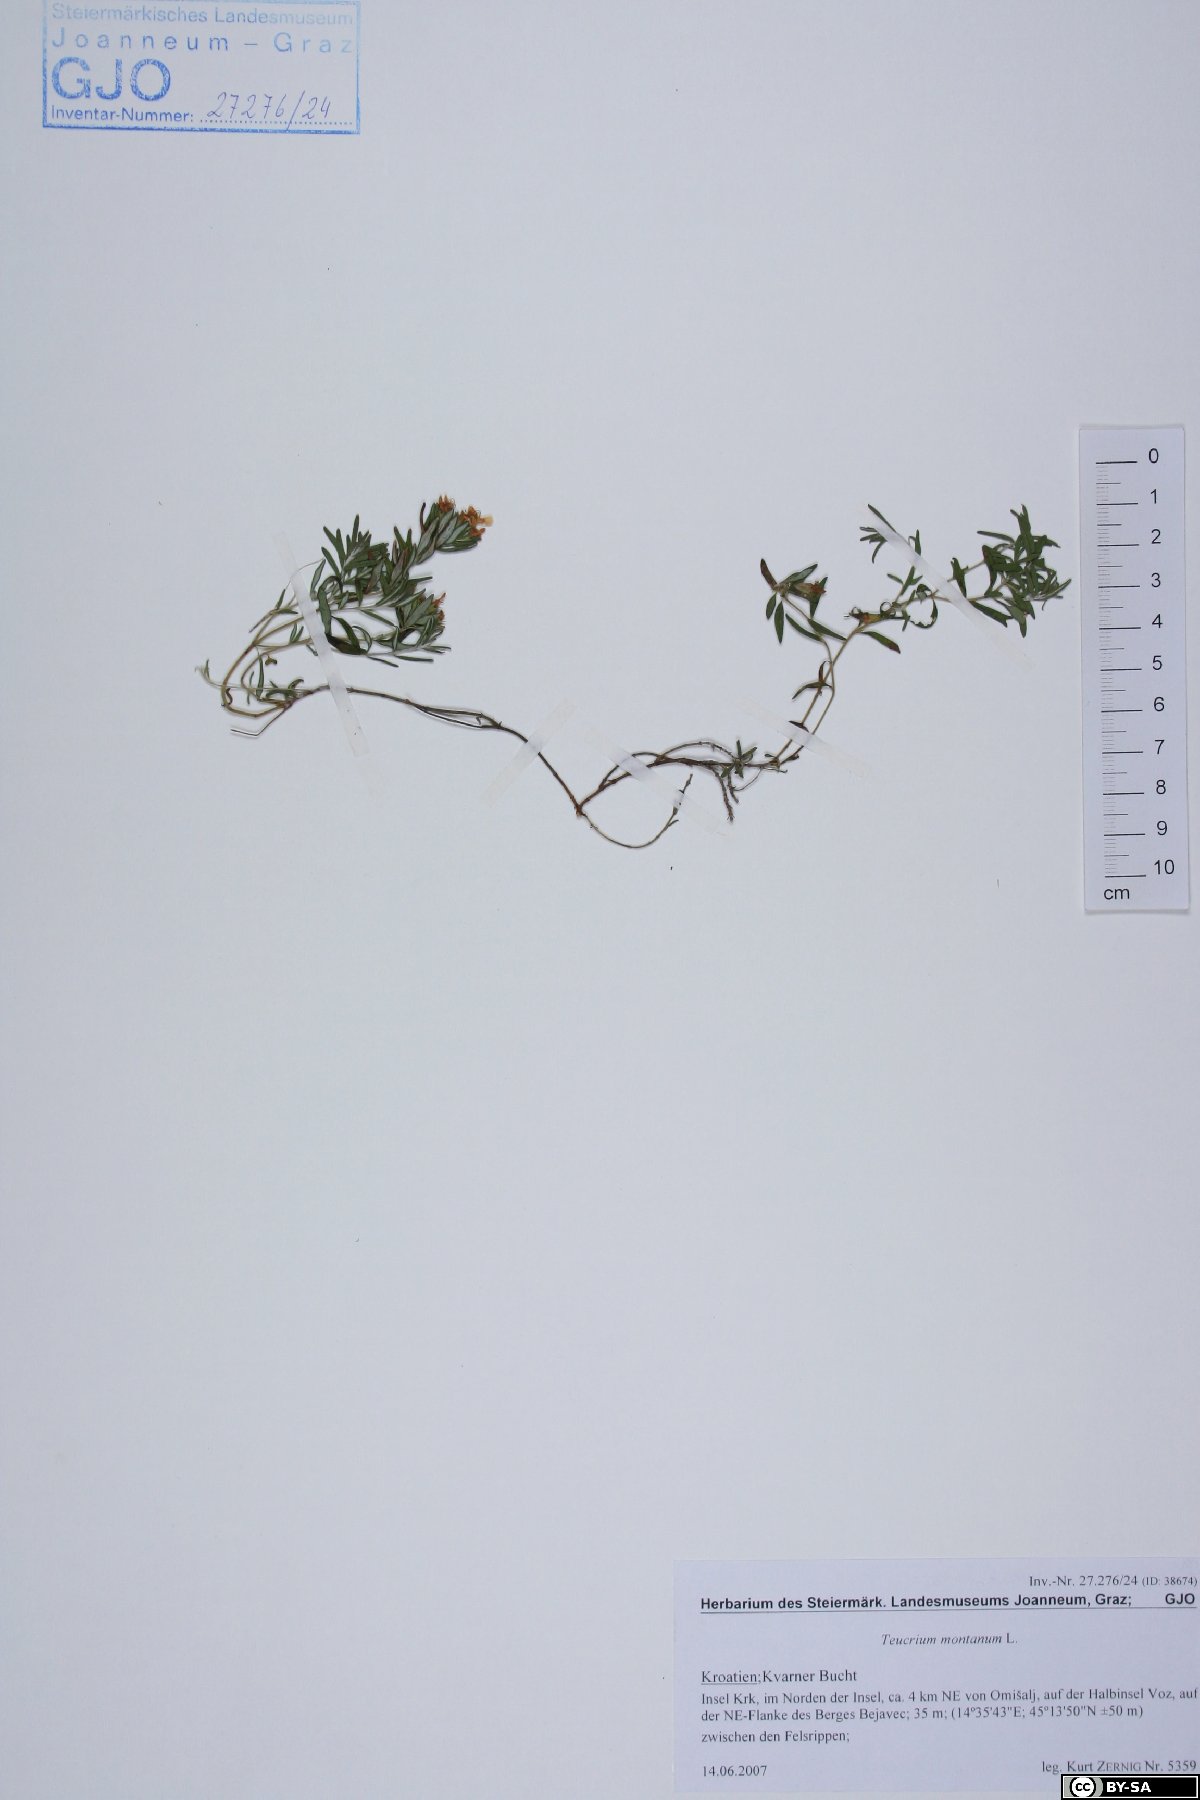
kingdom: Plantae
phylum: Tracheophyta
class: Magnoliopsida
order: Lamiales
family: Lamiaceae
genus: Teucrium
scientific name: Teucrium montanum
